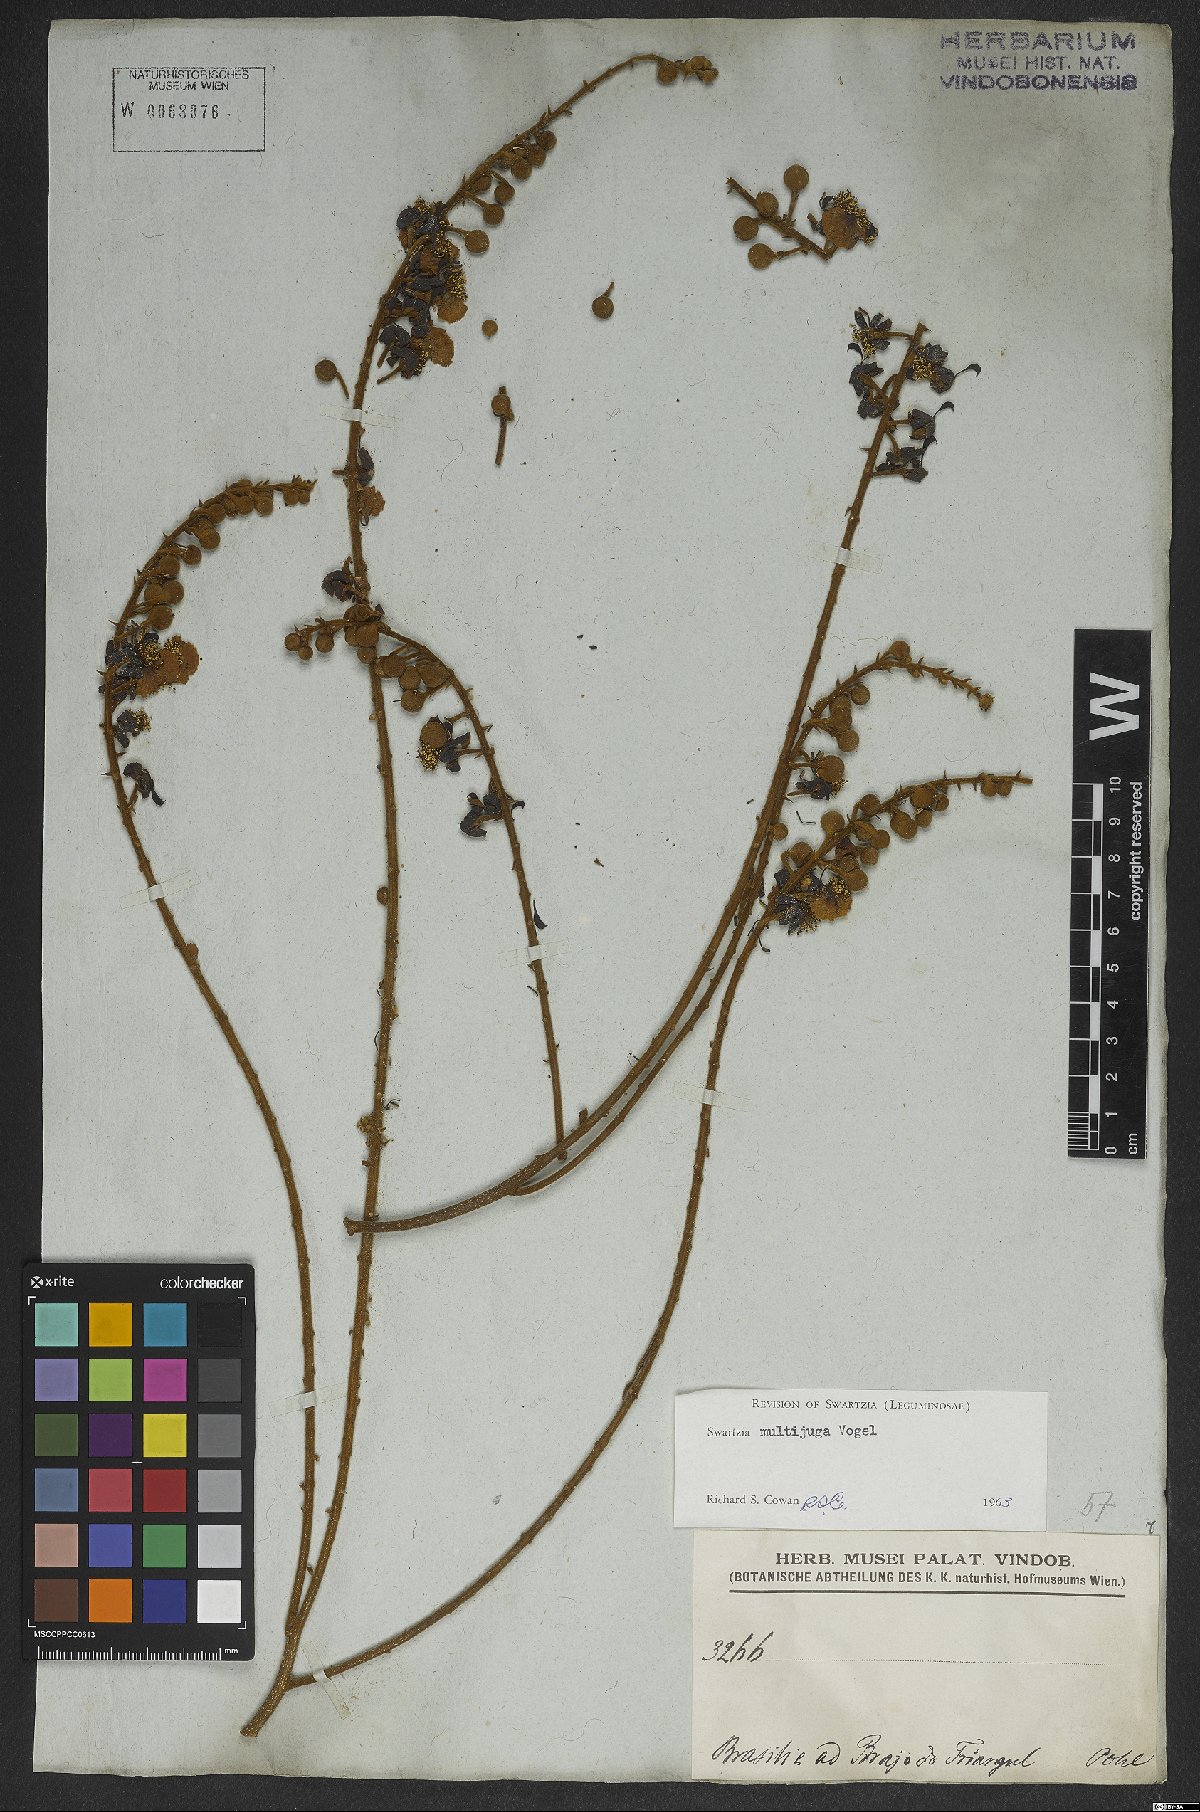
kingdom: Plantae
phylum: Tracheophyta
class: Magnoliopsida
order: Fabales
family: Fabaceae
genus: Swartzia
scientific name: Swartzia multijuga
